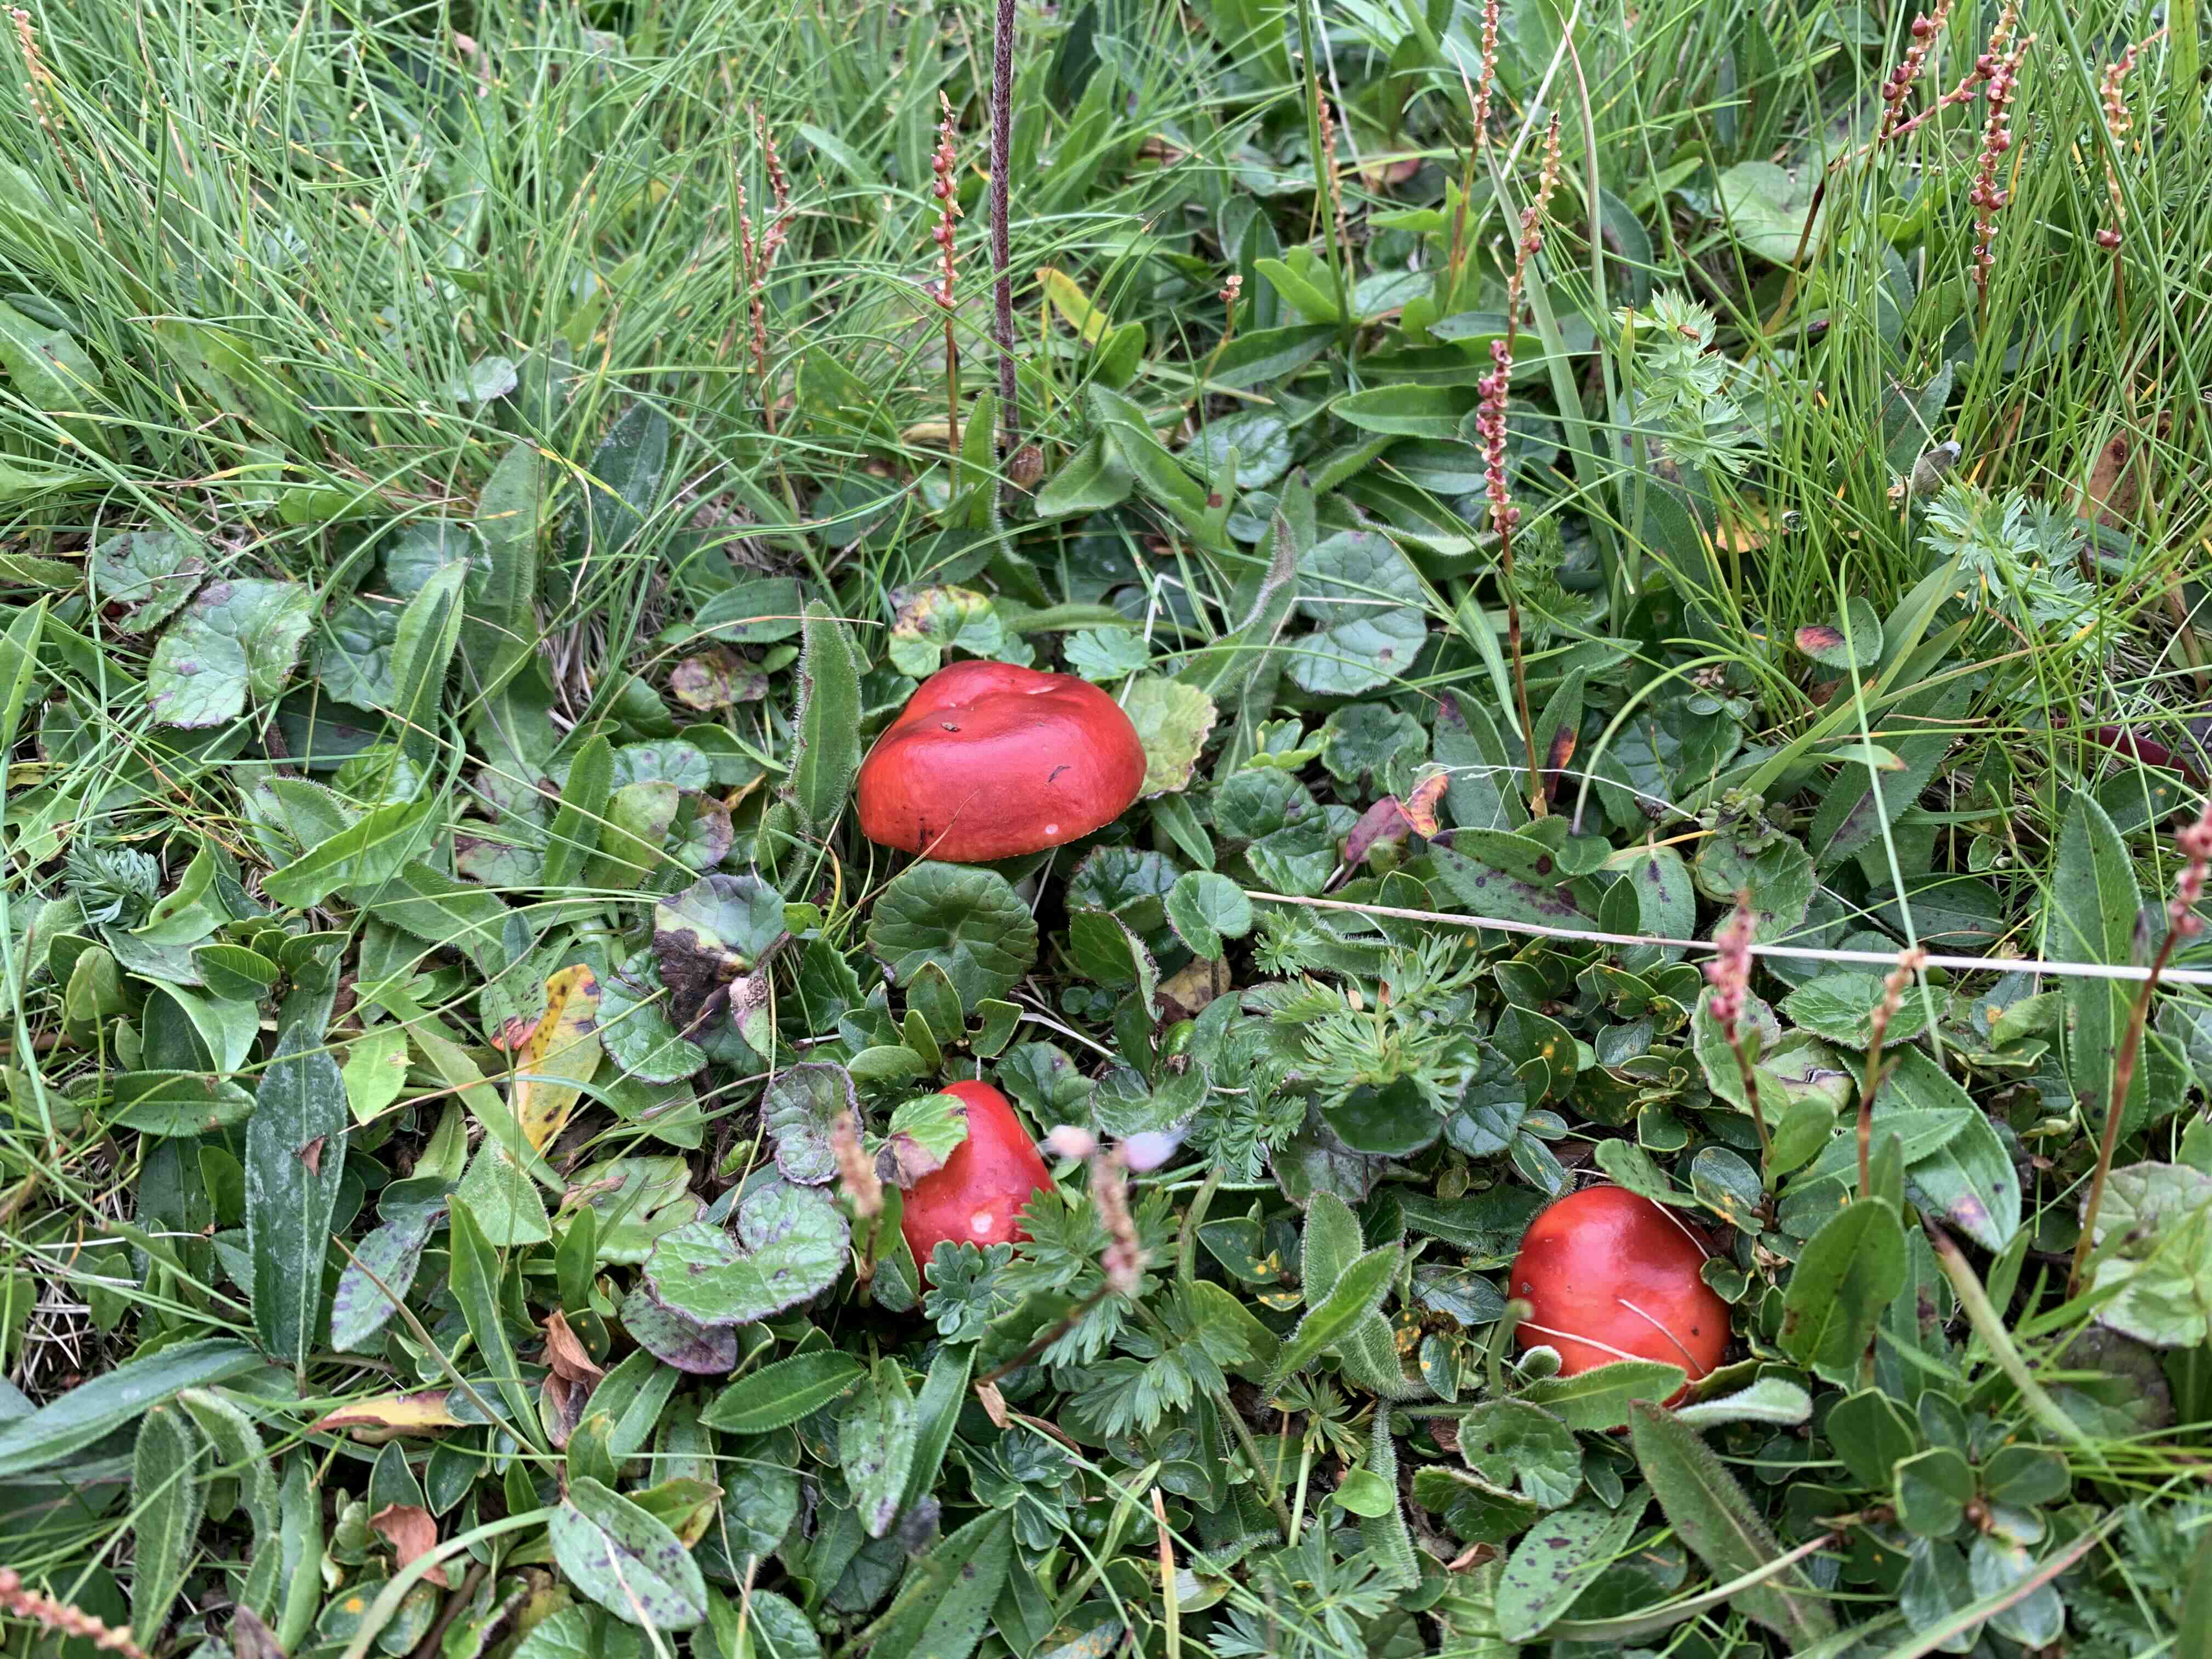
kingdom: Fungi
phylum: Basidiomycota
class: Agaricomycetes
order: Russulales
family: Russulaceae
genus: Russula
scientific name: Russula
